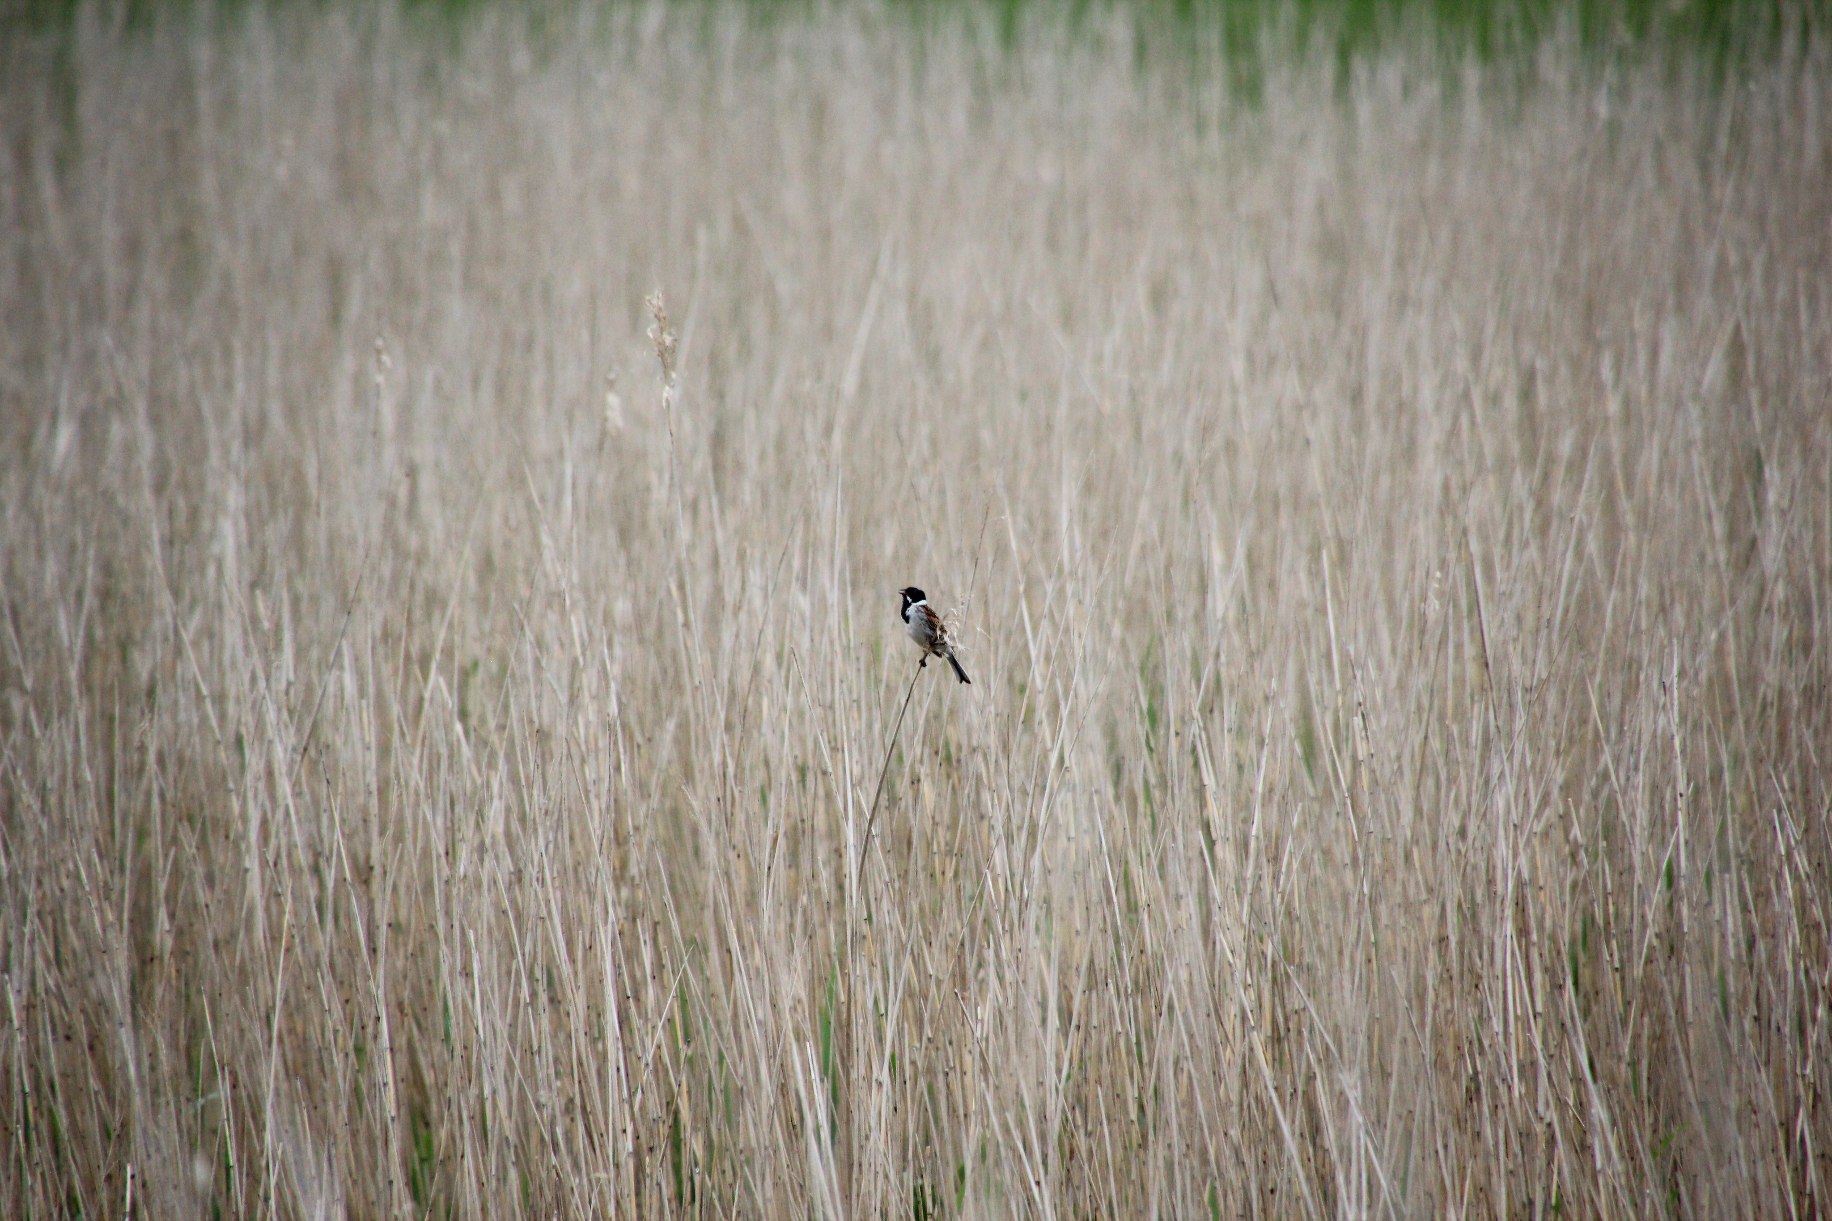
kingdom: Animalia
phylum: Chordata
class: Aves
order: Passeriformes
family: Emberizidae
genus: Emberiza
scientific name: Emberiza schoeniclus
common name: Rørspurv
